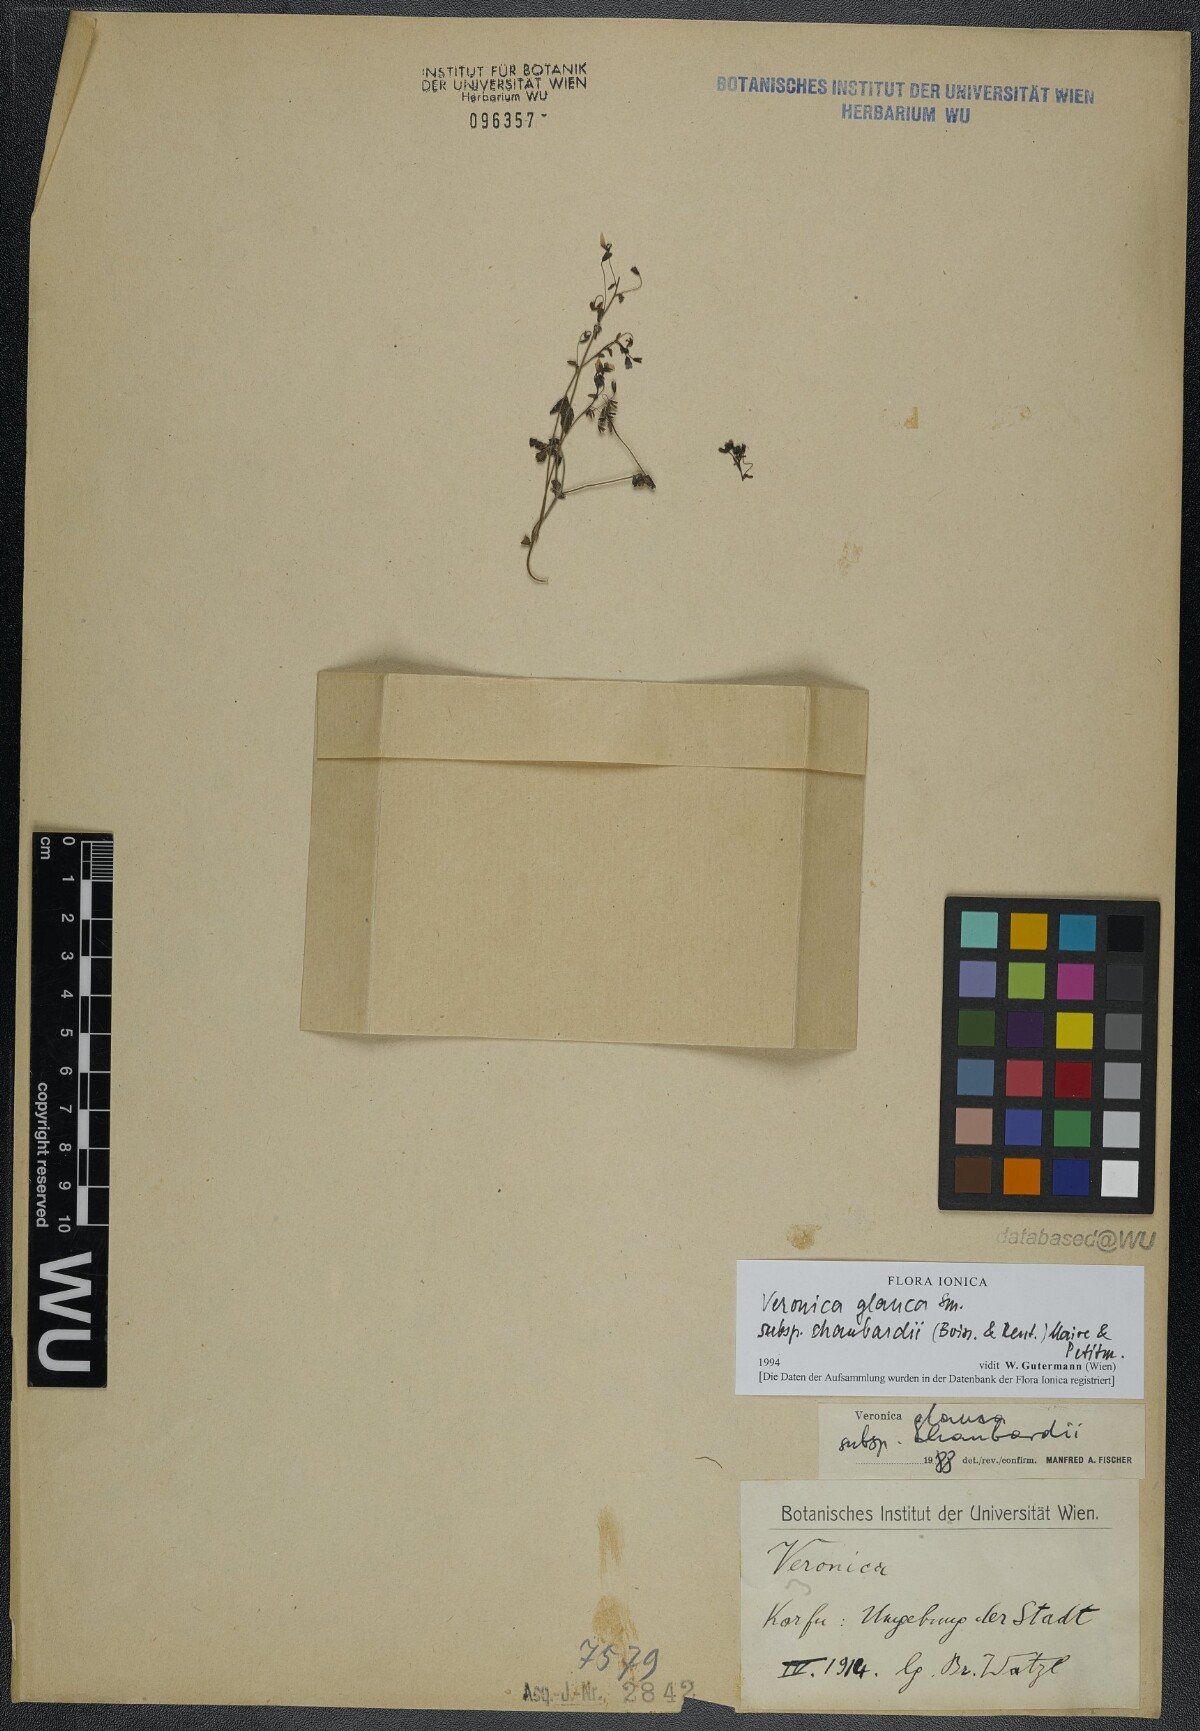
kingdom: Plantae
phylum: Tracheophyta
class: Magnoliopsida
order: Lamiales
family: Plantaginaceae
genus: Veronica
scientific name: Veronica glauca
